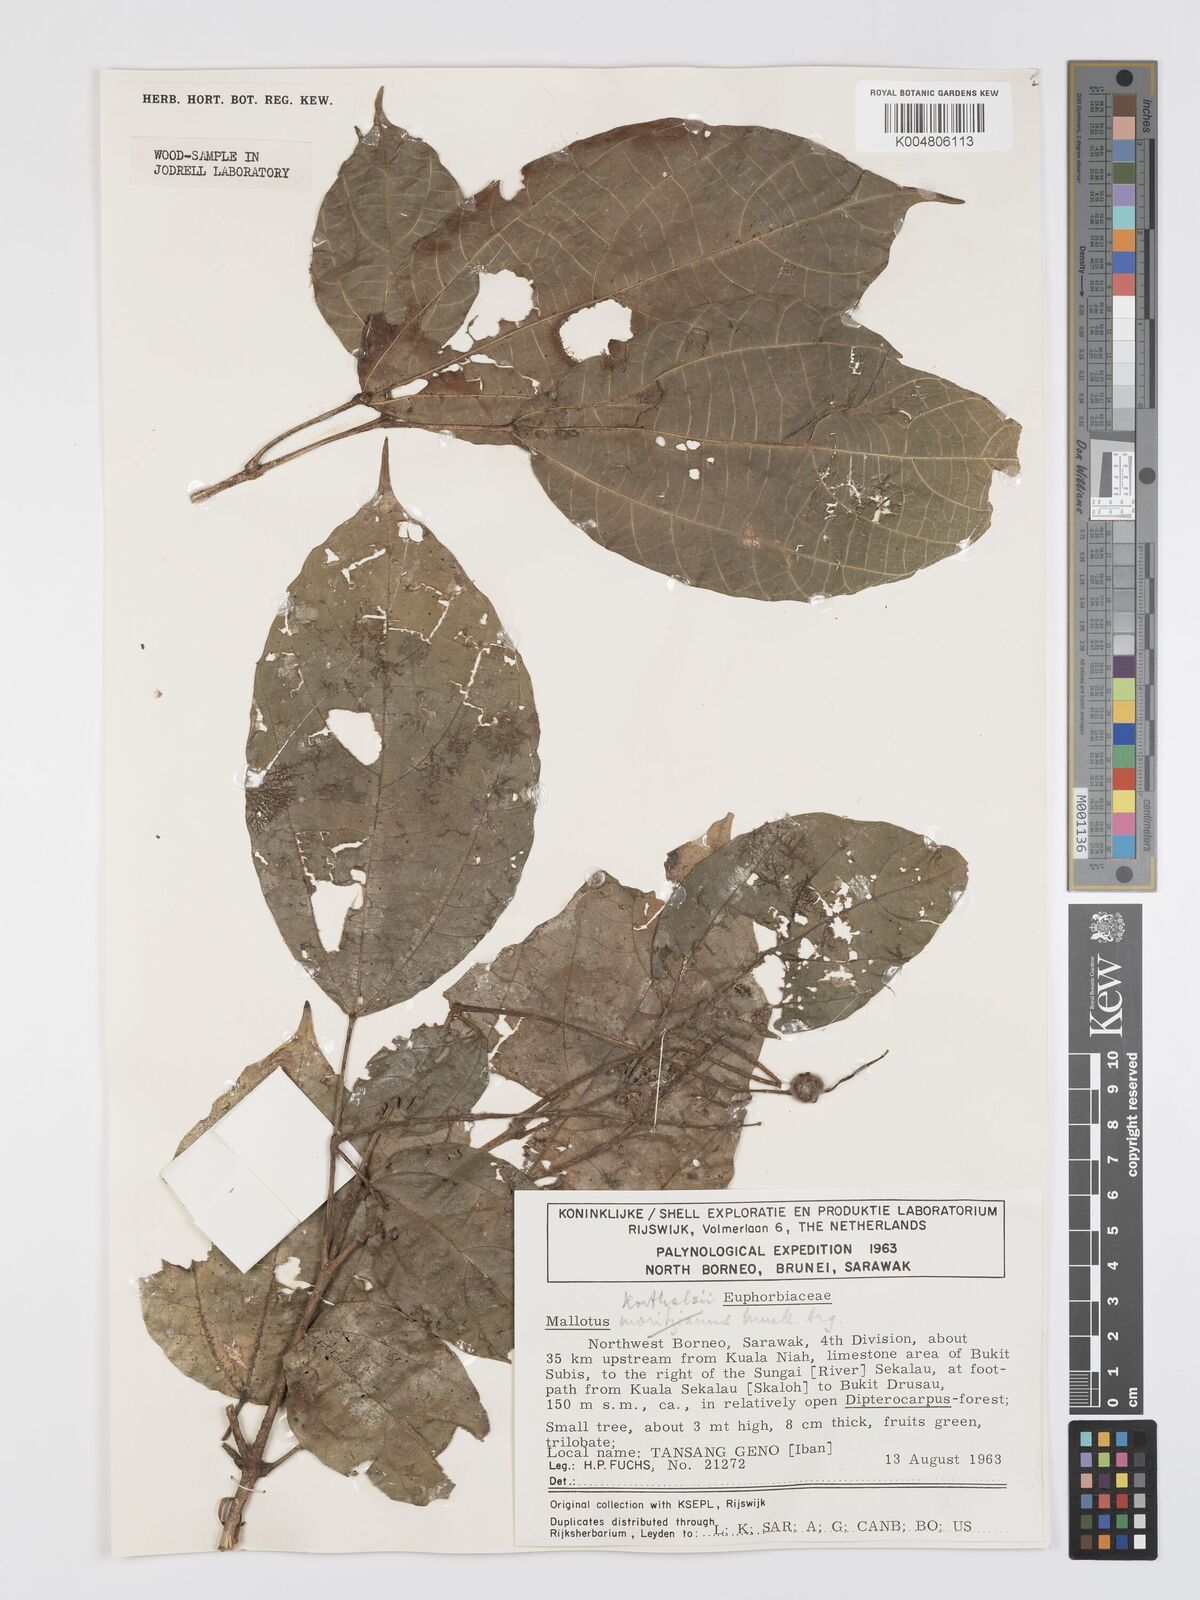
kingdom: Plantae
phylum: Tracheophyta
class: Magnoliopsida
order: Malpighiales
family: Euphorbiaceae
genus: Mallotus
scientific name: Mallotus korthalsii
